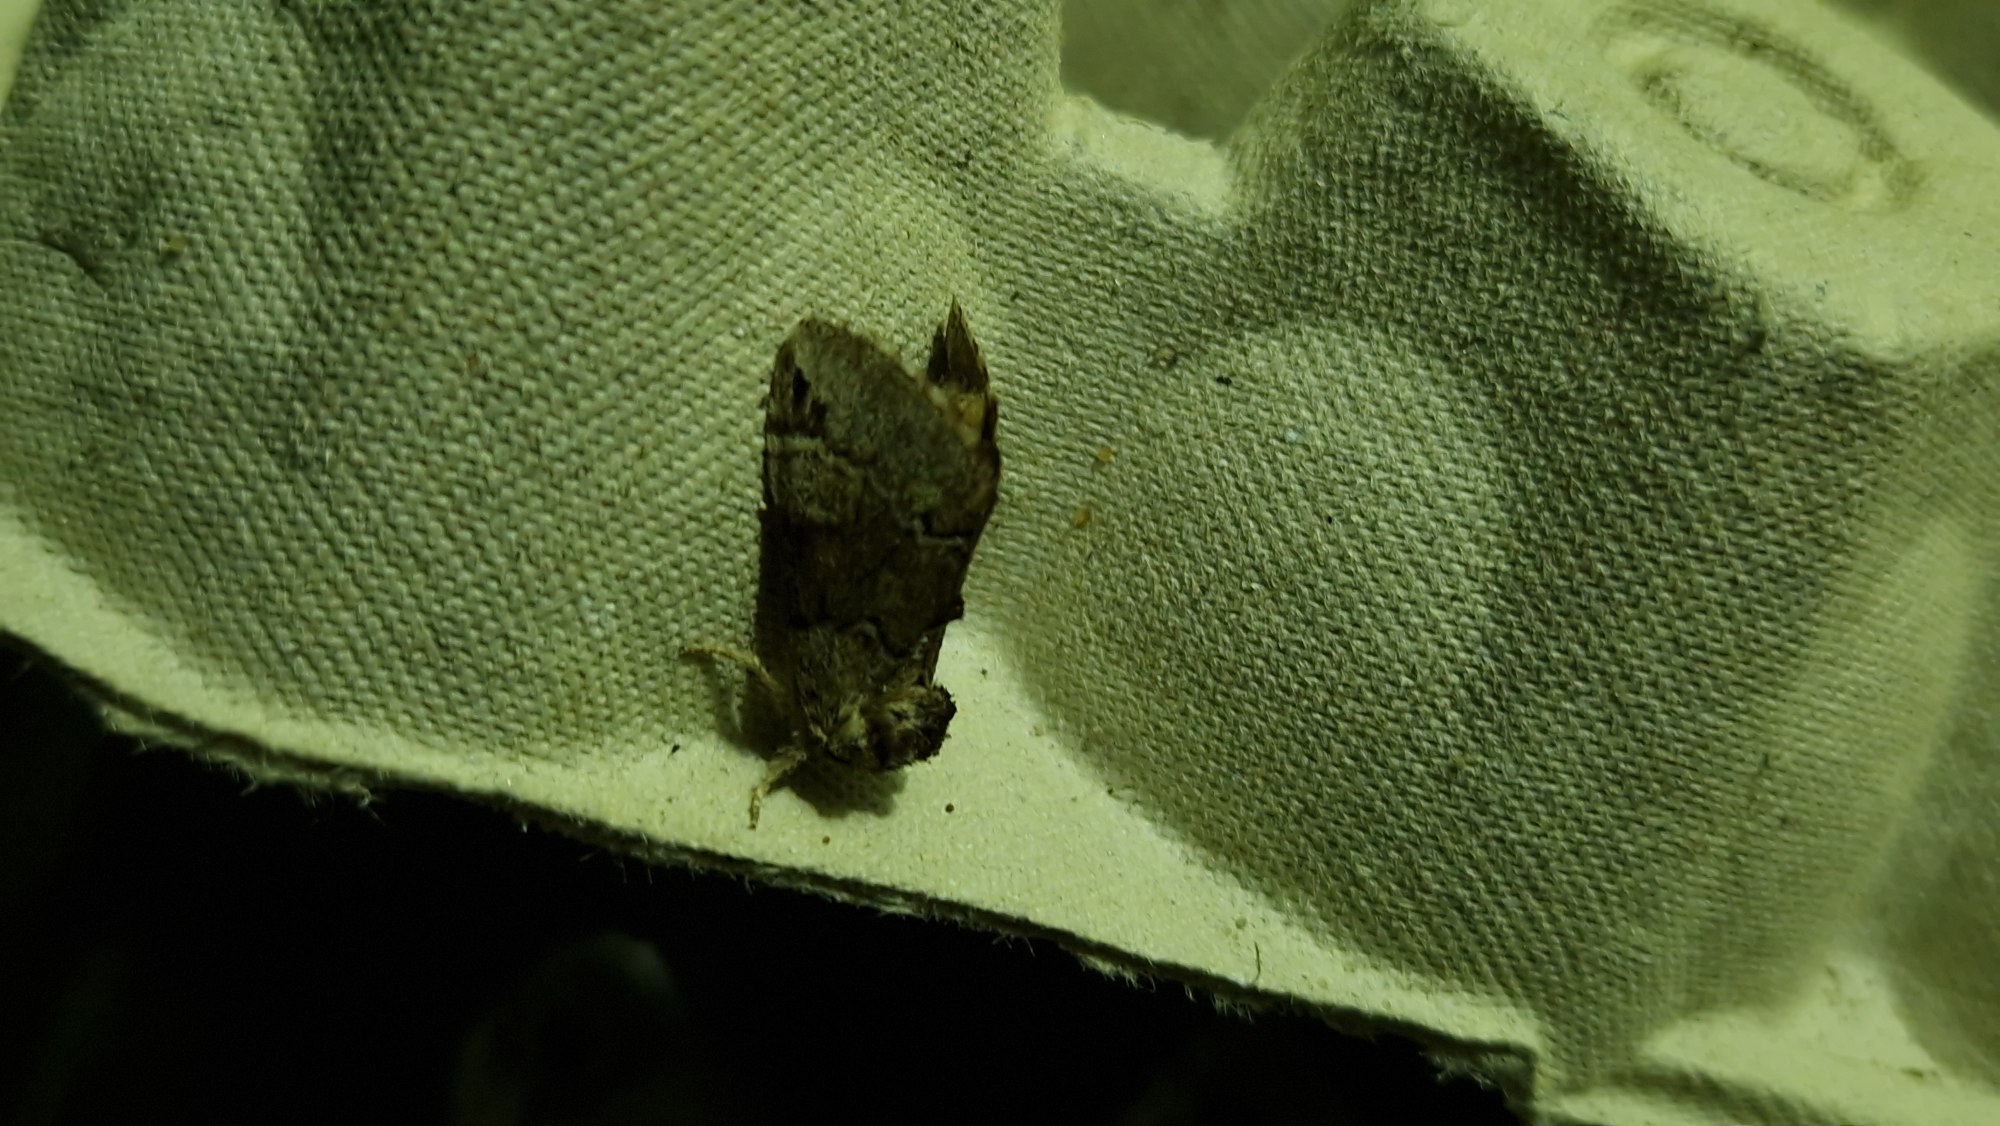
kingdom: Animalia
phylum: Arthropoda
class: Insecta
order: Lepidoptera
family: Notodontidae
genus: Drymonia
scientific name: Drymonia obliterata
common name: Bøgeskovspinder
